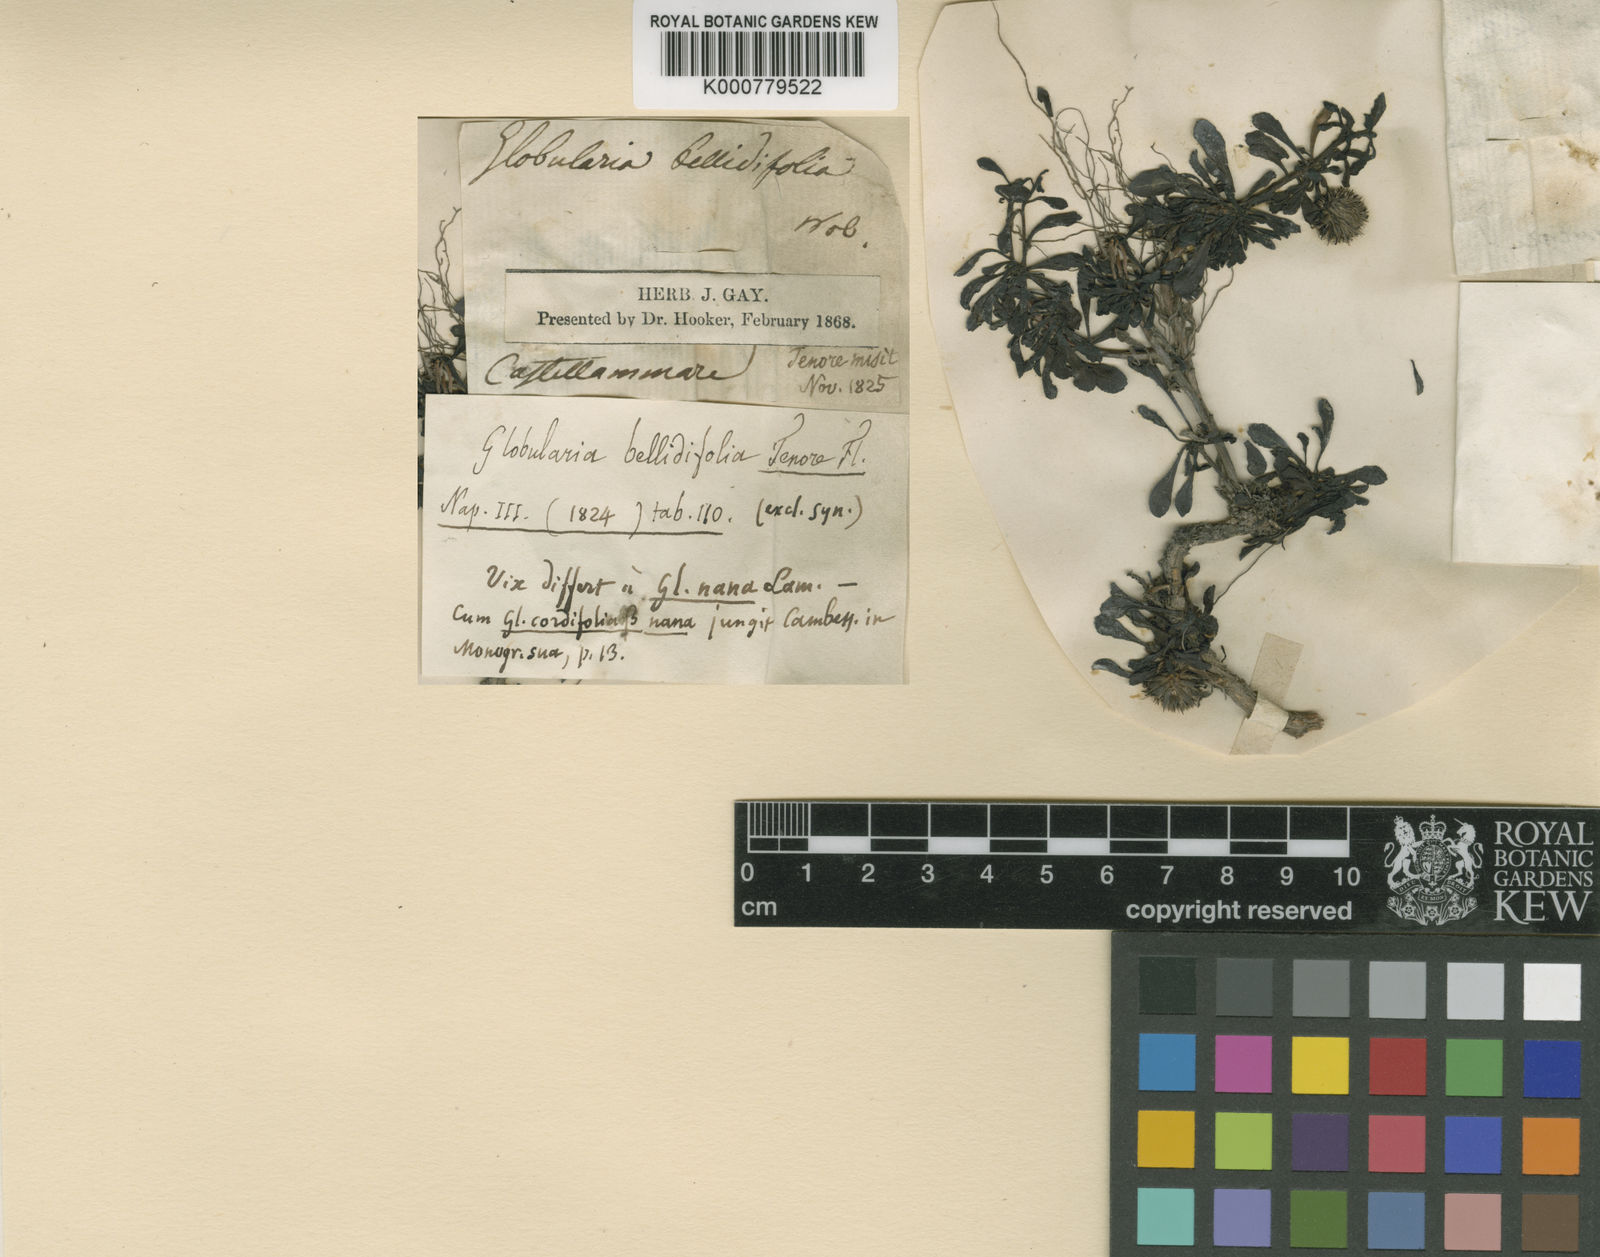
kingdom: Plantae
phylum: Tracheophyta
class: Magnoliopsida
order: Lamiales
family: Plantaginaceae
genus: Globularia
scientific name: Globularia meridionalis
